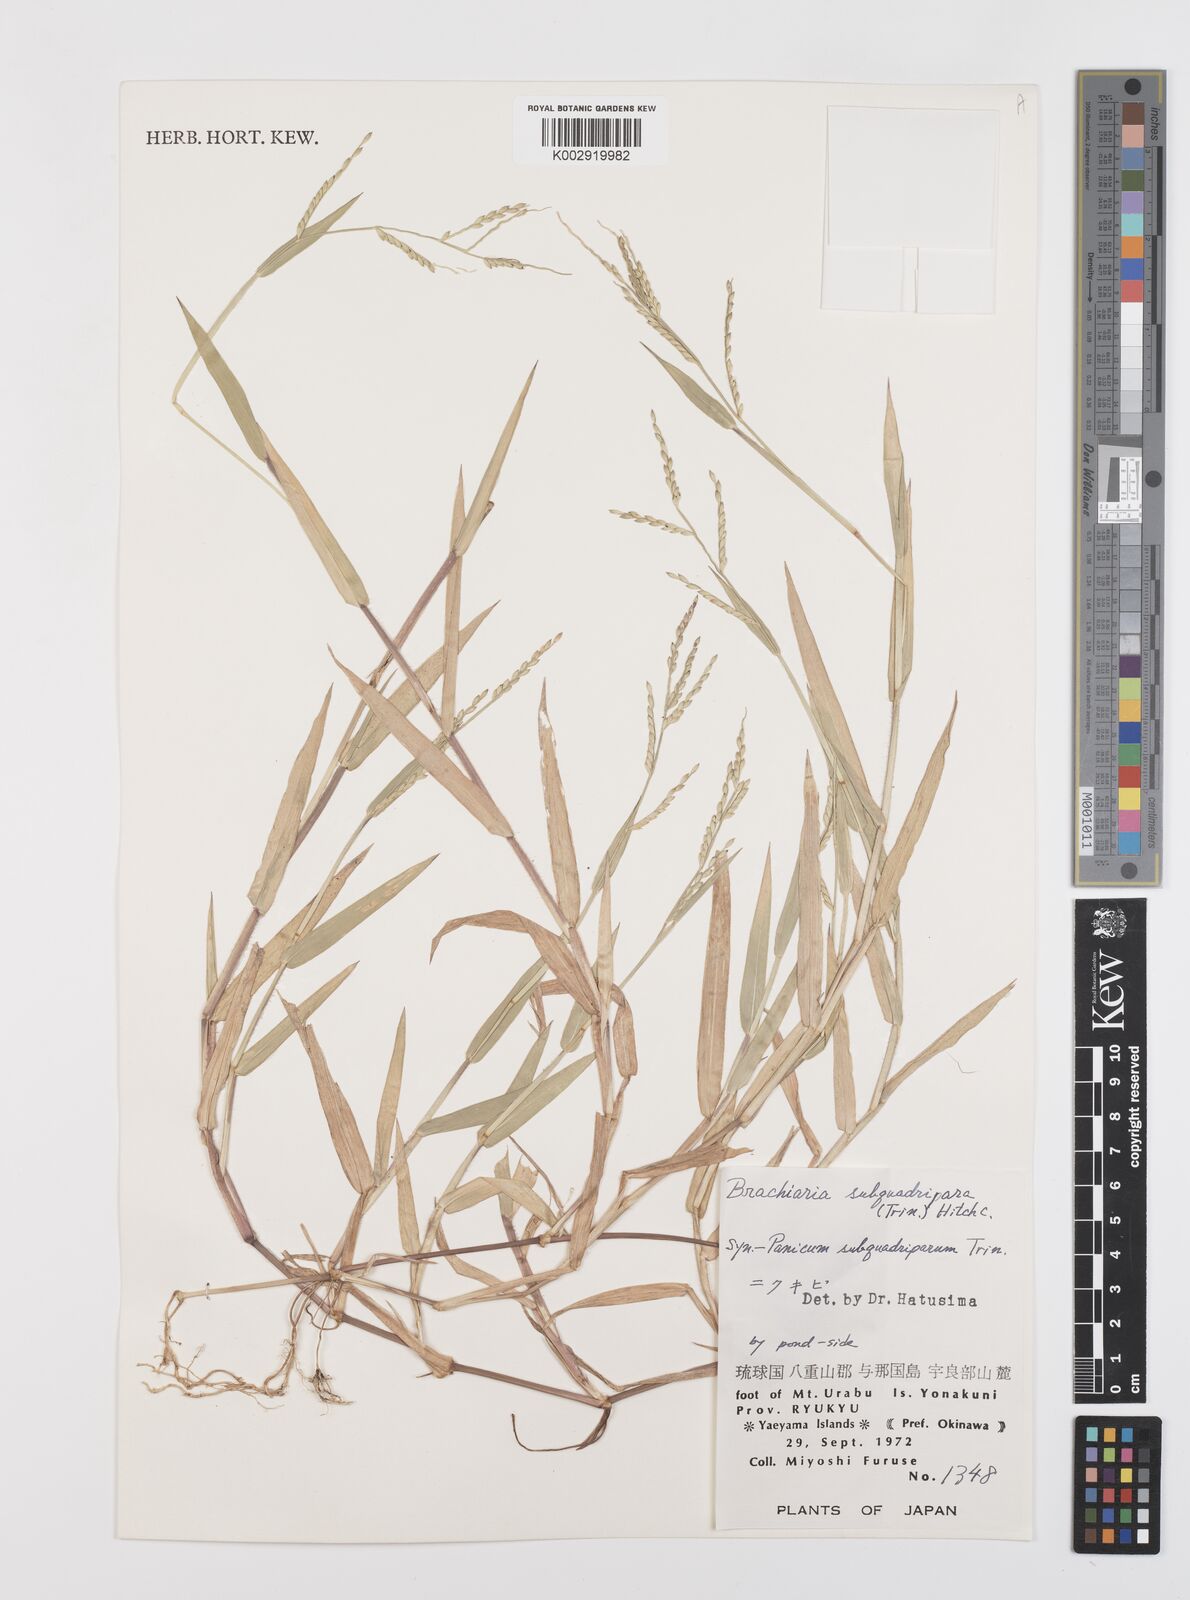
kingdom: Plantae
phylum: Tracheophyta
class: Liliopsida
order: Poales
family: Poaceae
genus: Urochloa
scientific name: Urochloa subquadripara
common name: Armgrass millet
